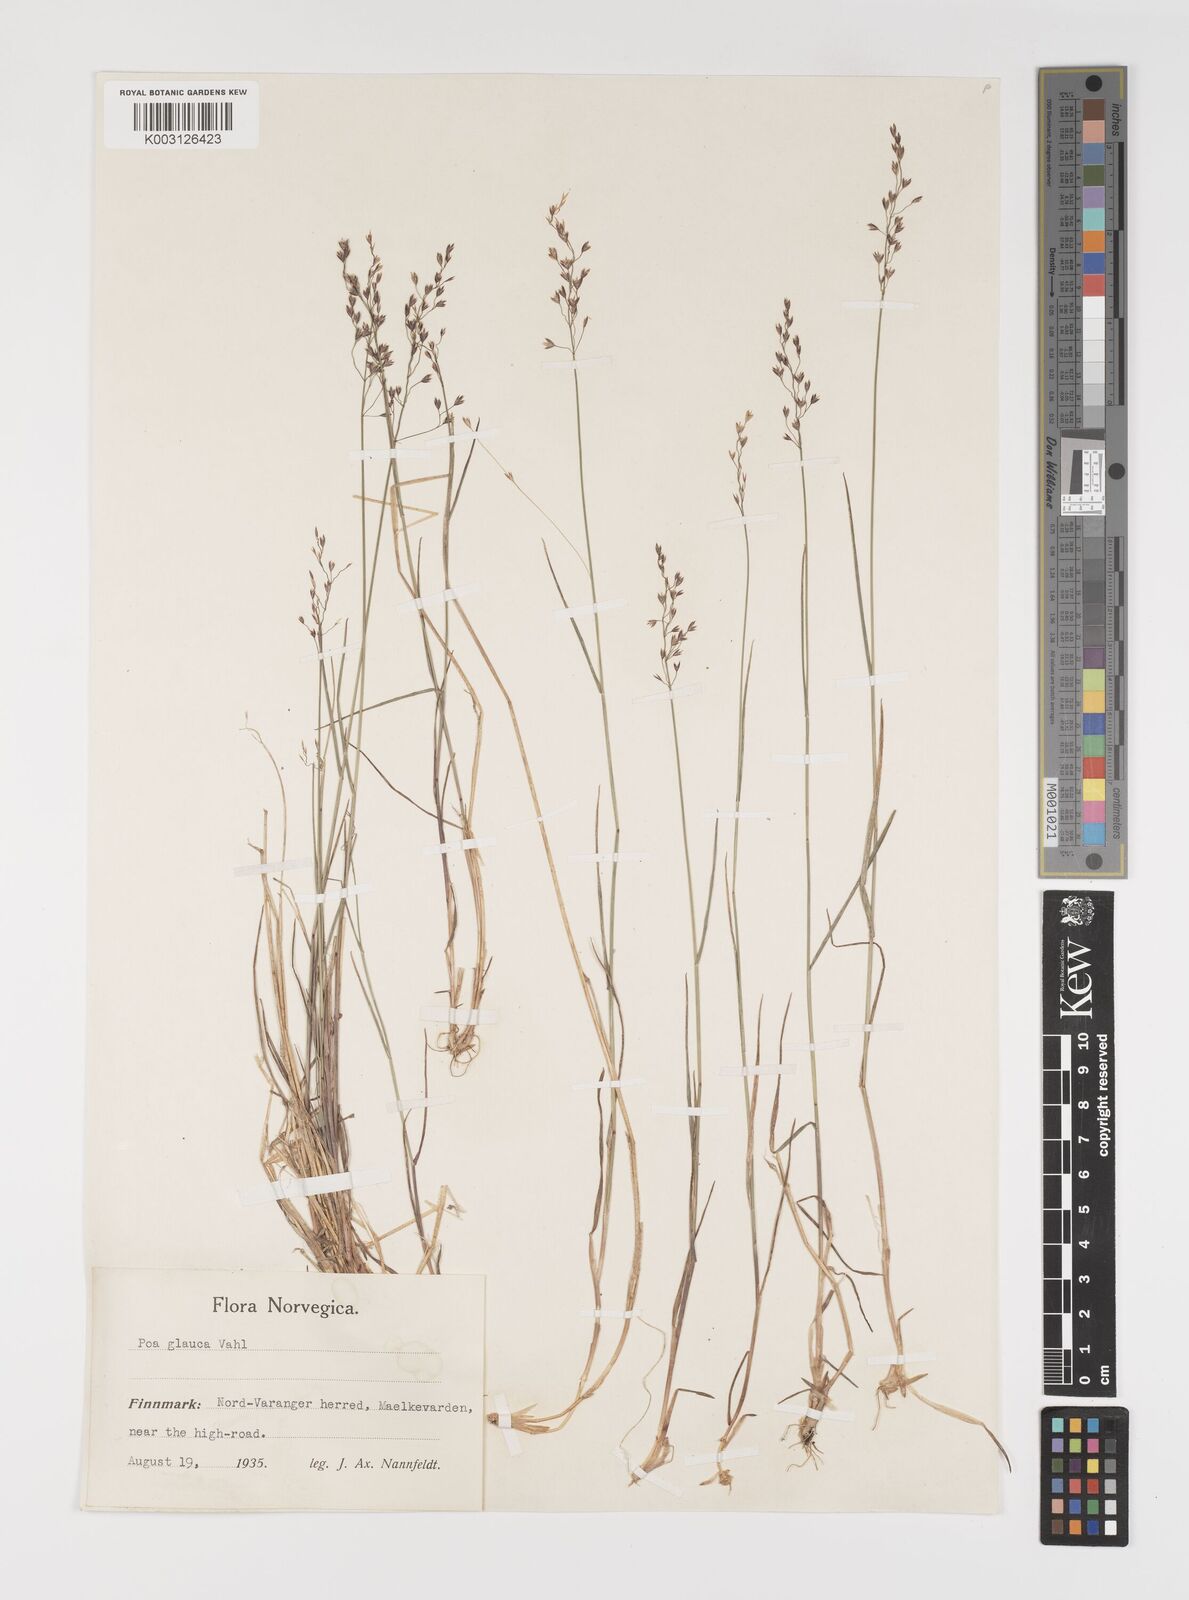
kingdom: Plantae
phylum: Tracheophyta
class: Liliopsida
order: Poales
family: Poaceae
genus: Poa
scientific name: Poa nemoralis
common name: Wood bluegrass
